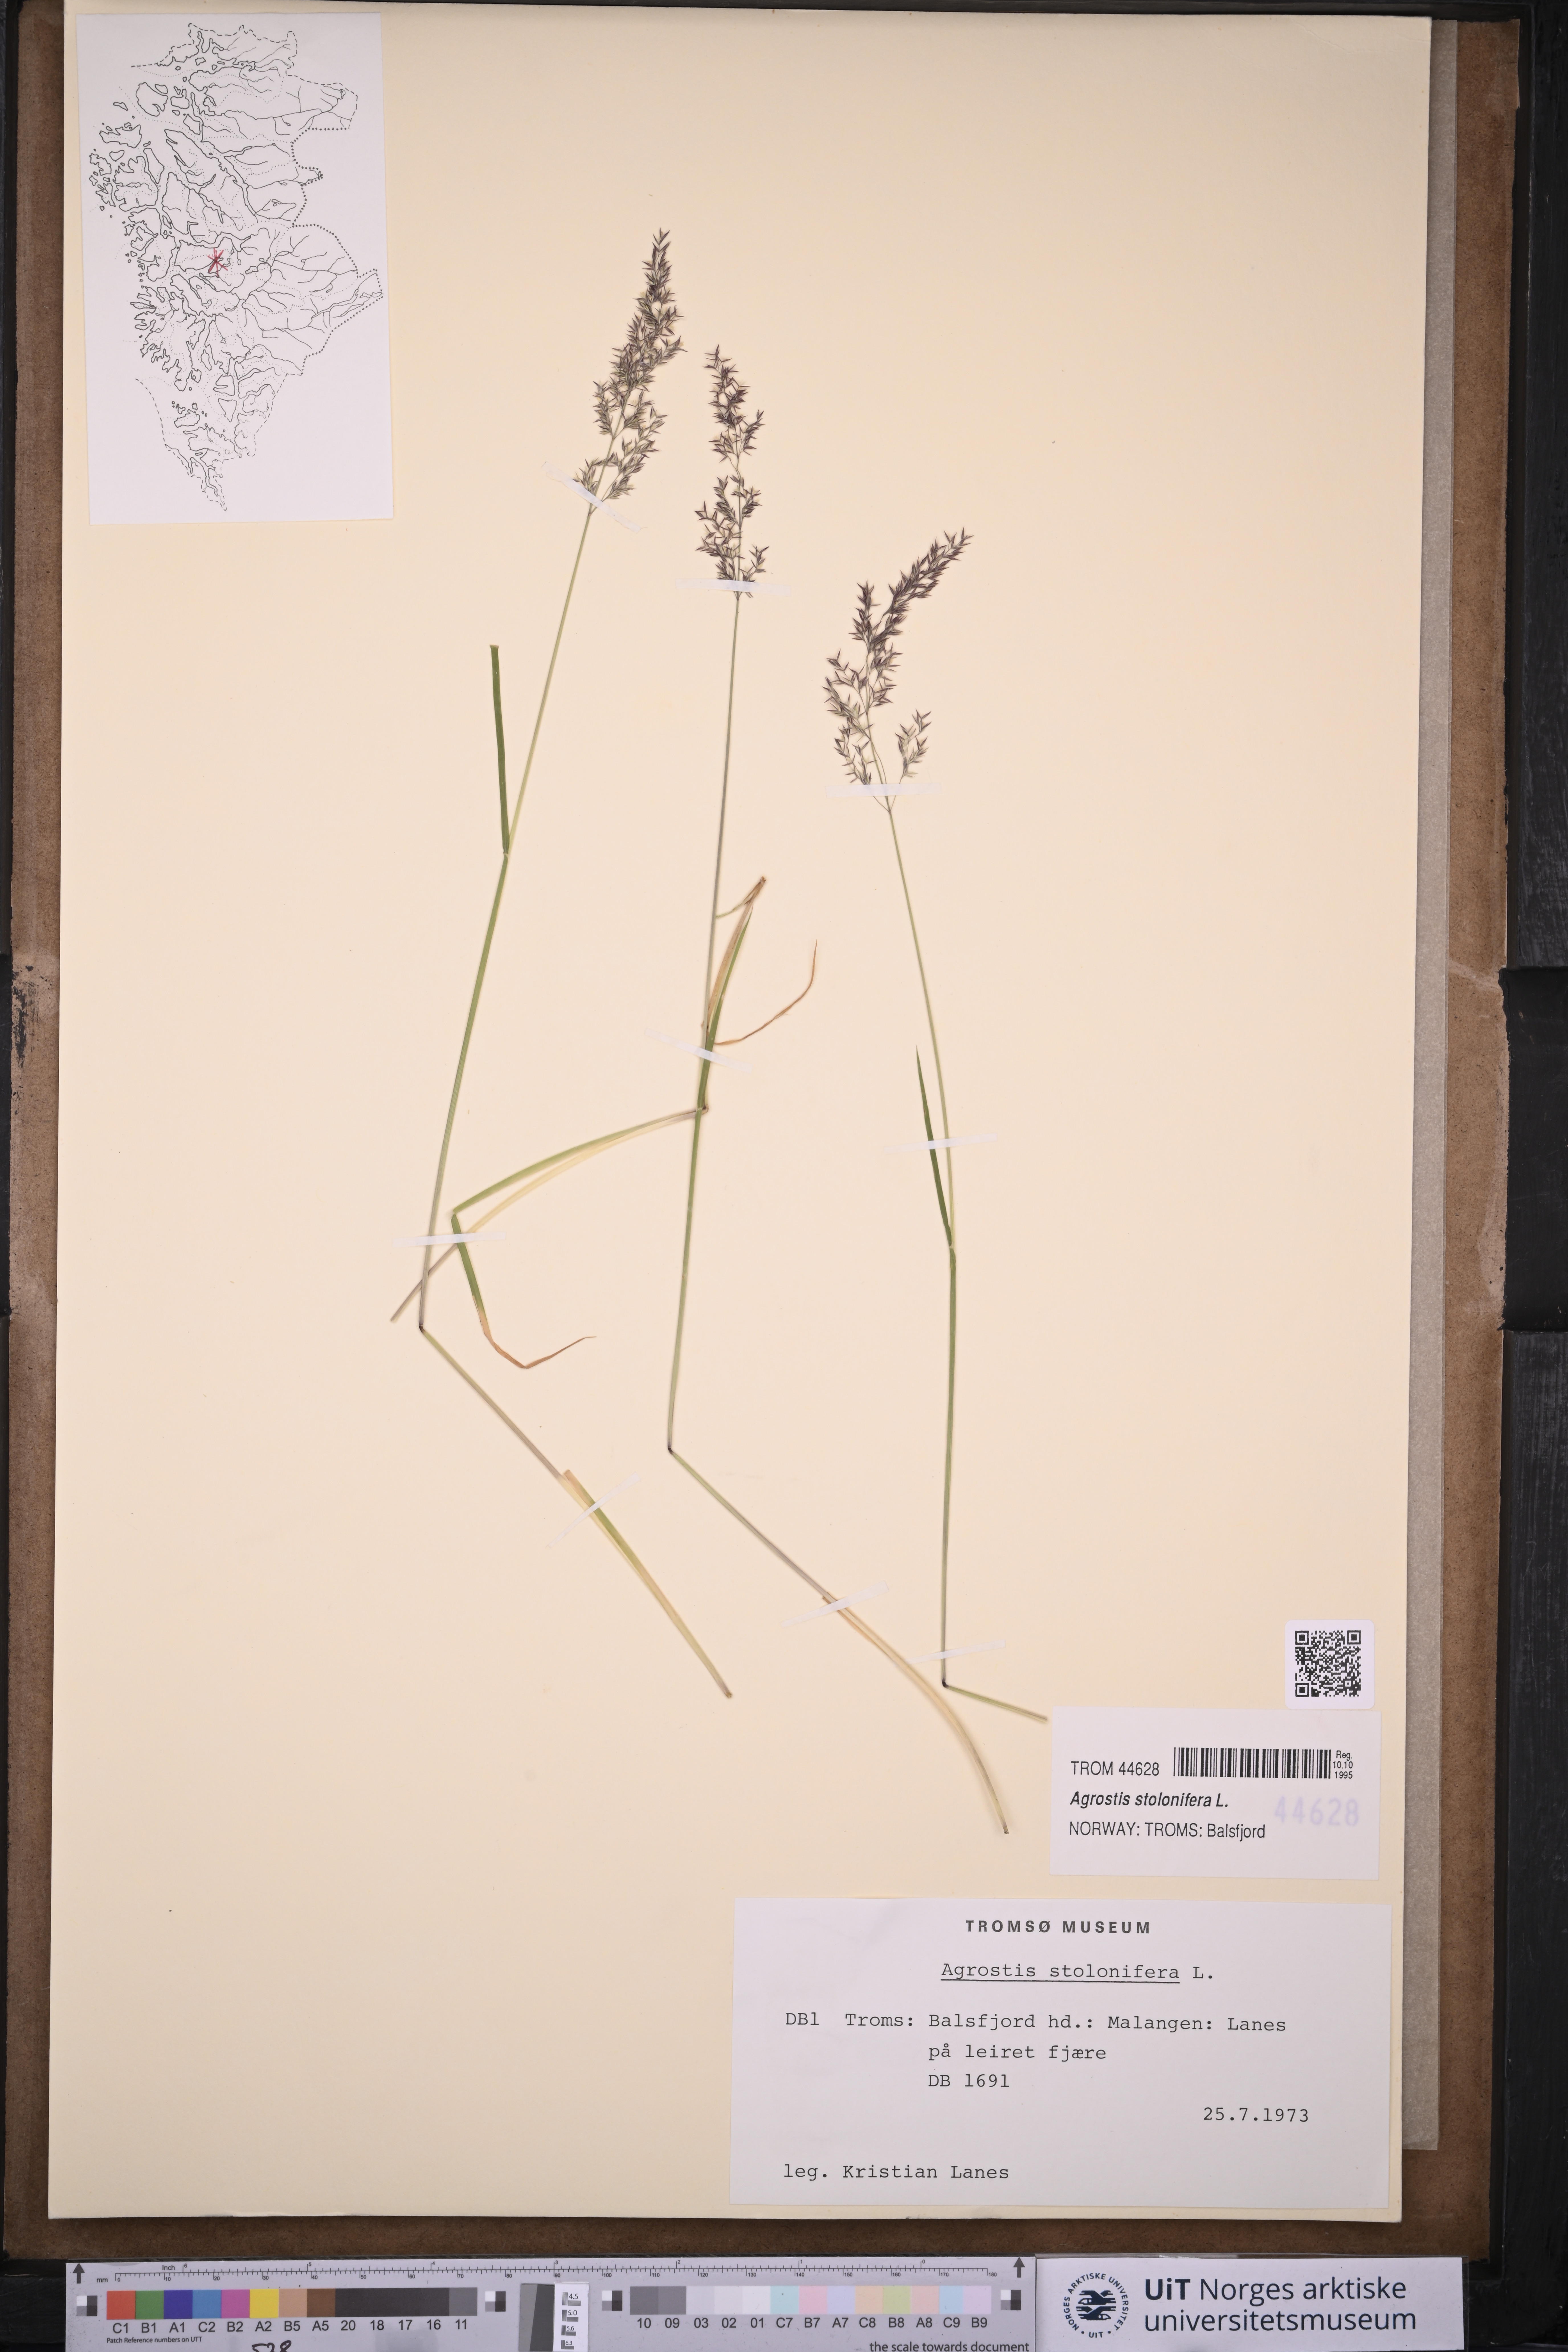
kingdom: Plantae
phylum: Tracheophyta
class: Liliopsida
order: Poales
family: Poaceae
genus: Agrostis
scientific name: Agrostis stolonifera
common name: Creeping bentgrass
